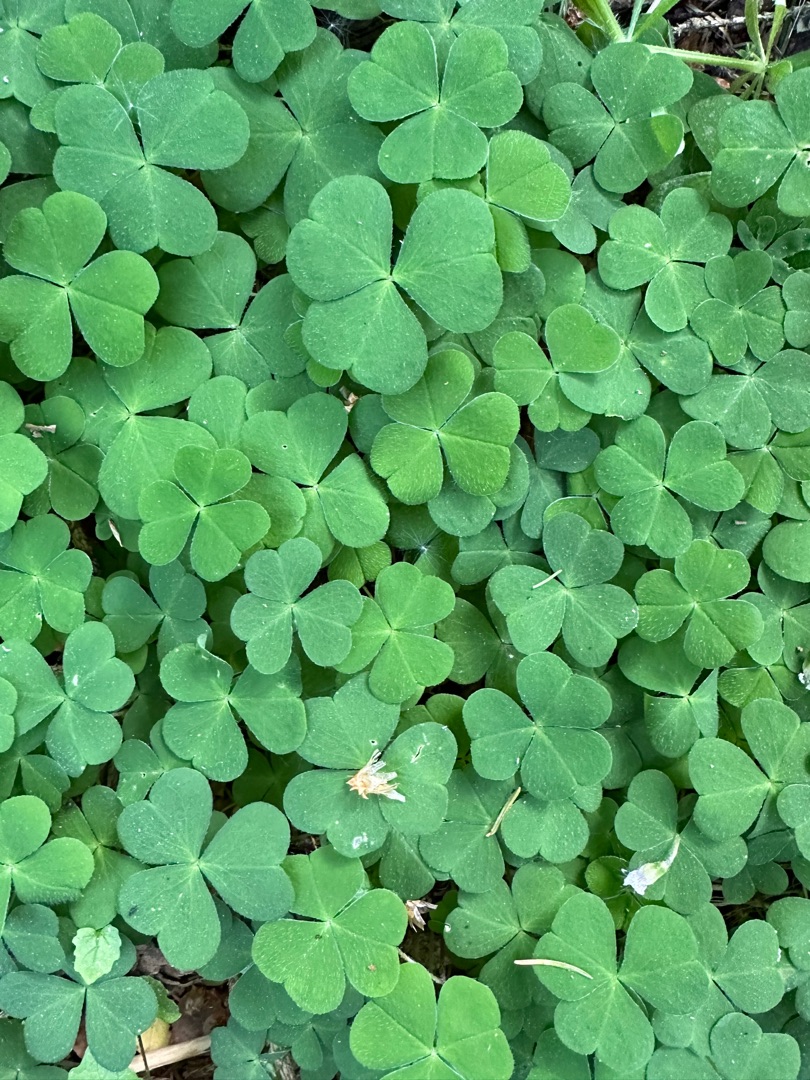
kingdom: Plantae
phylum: Tracheophyta
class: Magnoliopsida
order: Oxalidales
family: Oxalidaceae
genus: Oxalis
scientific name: Oxalis acetosella
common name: Skovsyre
